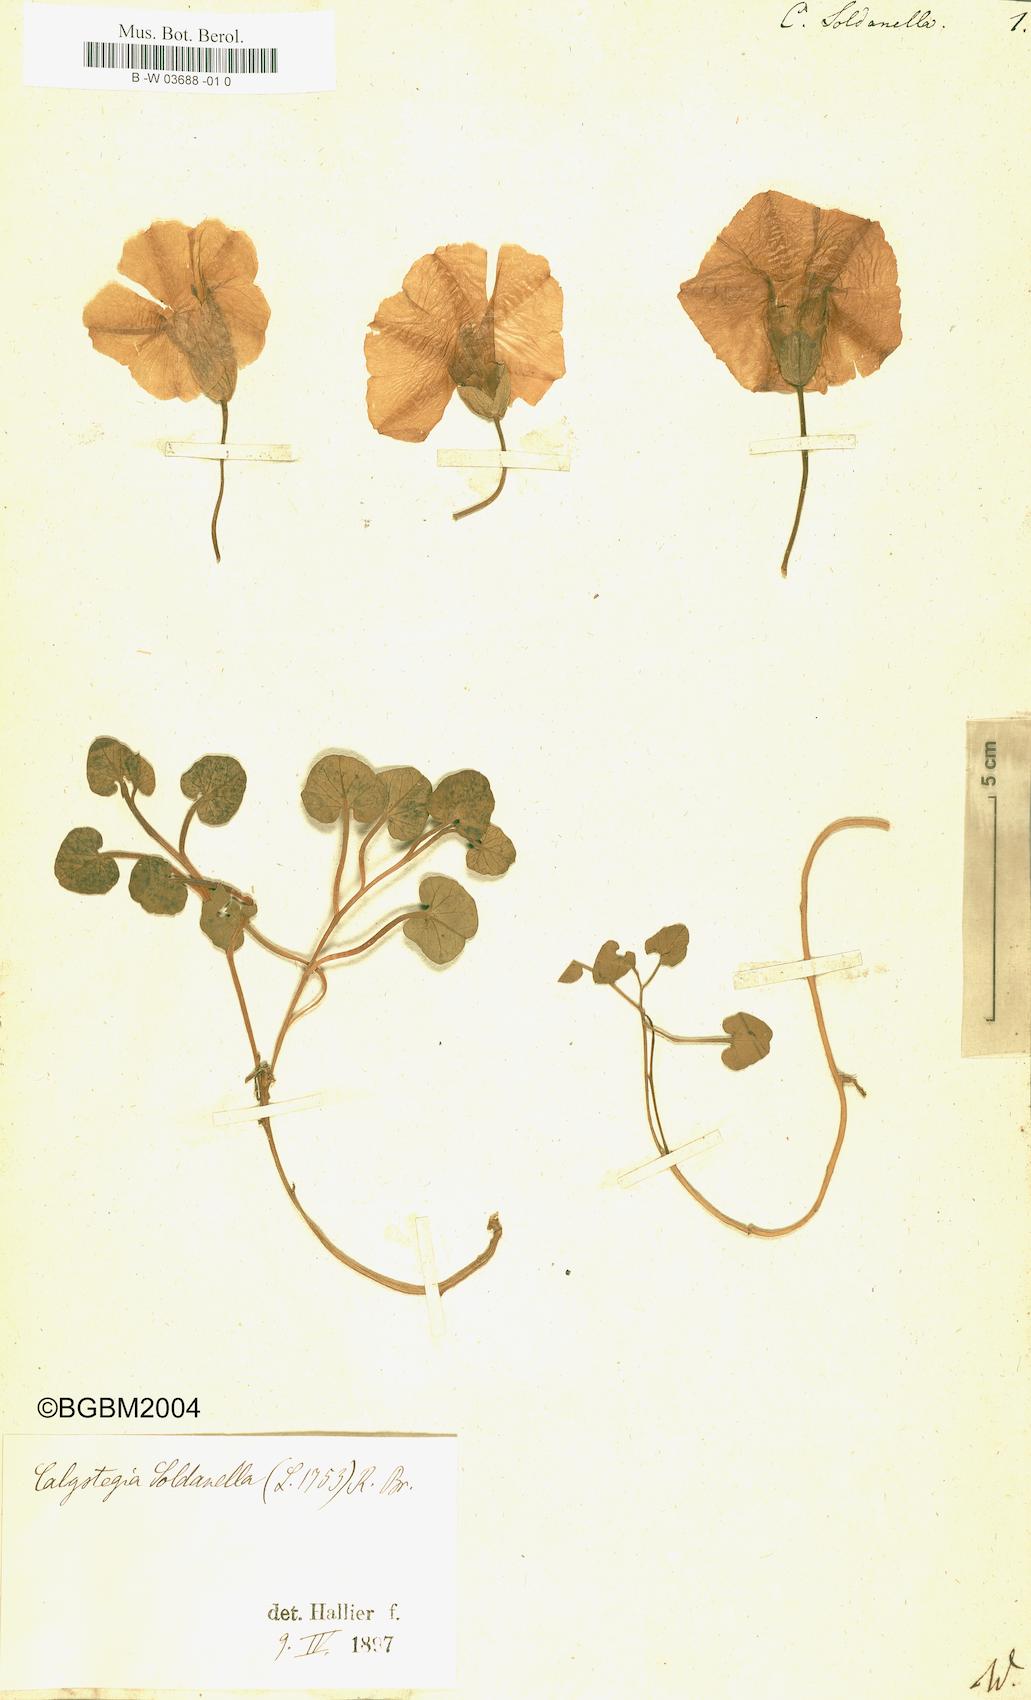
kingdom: Plantae
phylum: Tracheophyta
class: Magnoliopsida
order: Solanales
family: Convolvulaceae
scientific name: Convolvulaceae
